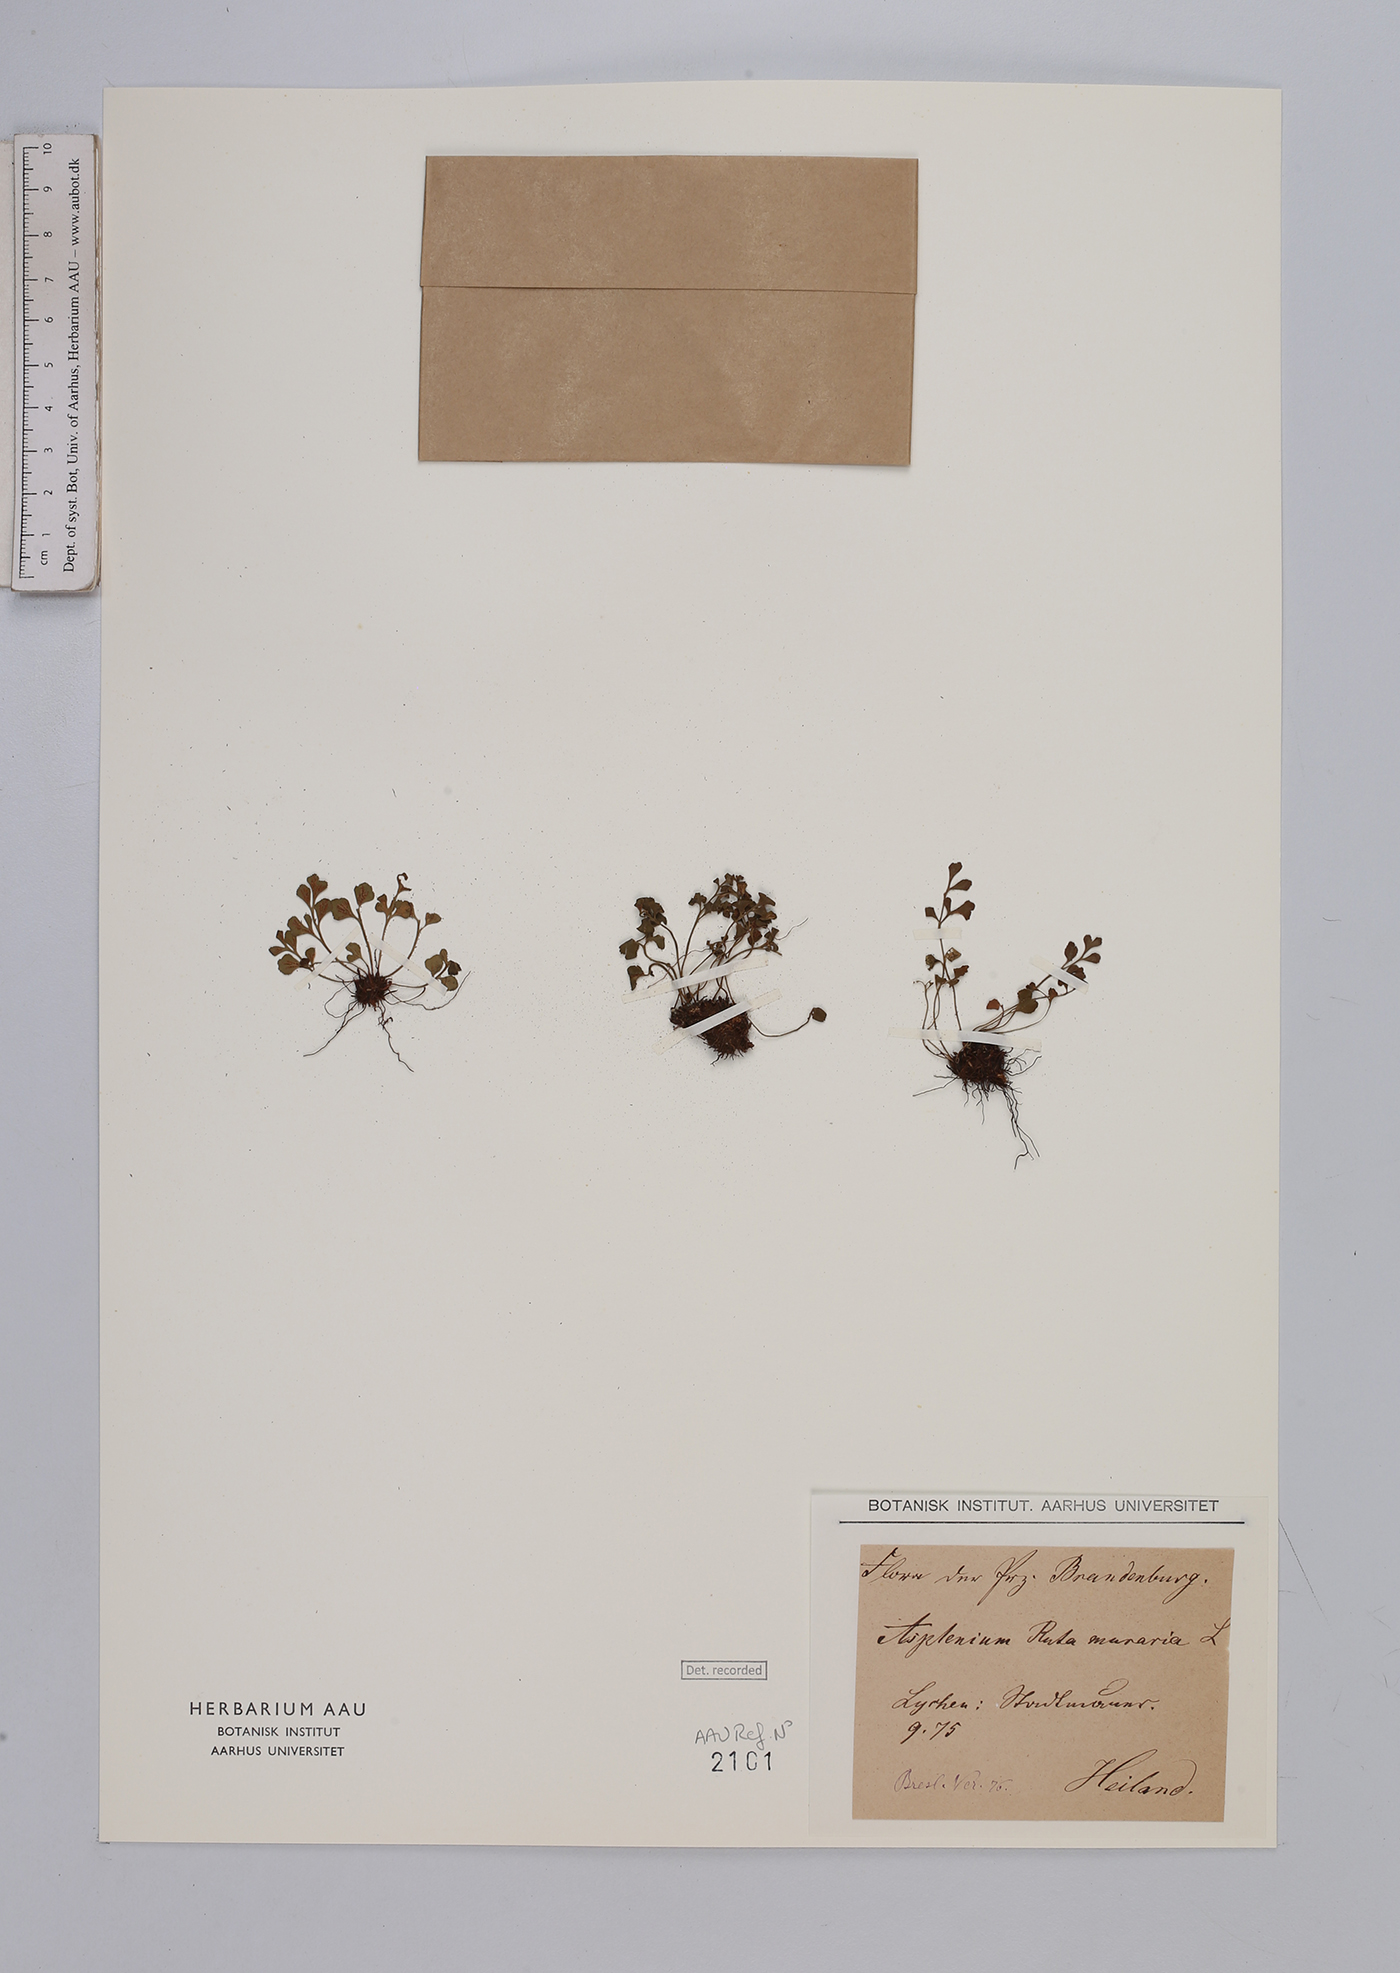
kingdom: Plantae
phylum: Tracheophyta
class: Polypodiopsida
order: Polypodiales
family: Aspleniaceae
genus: Asplenium
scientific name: Asplenium ruta-muraria
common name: Wall-rue
